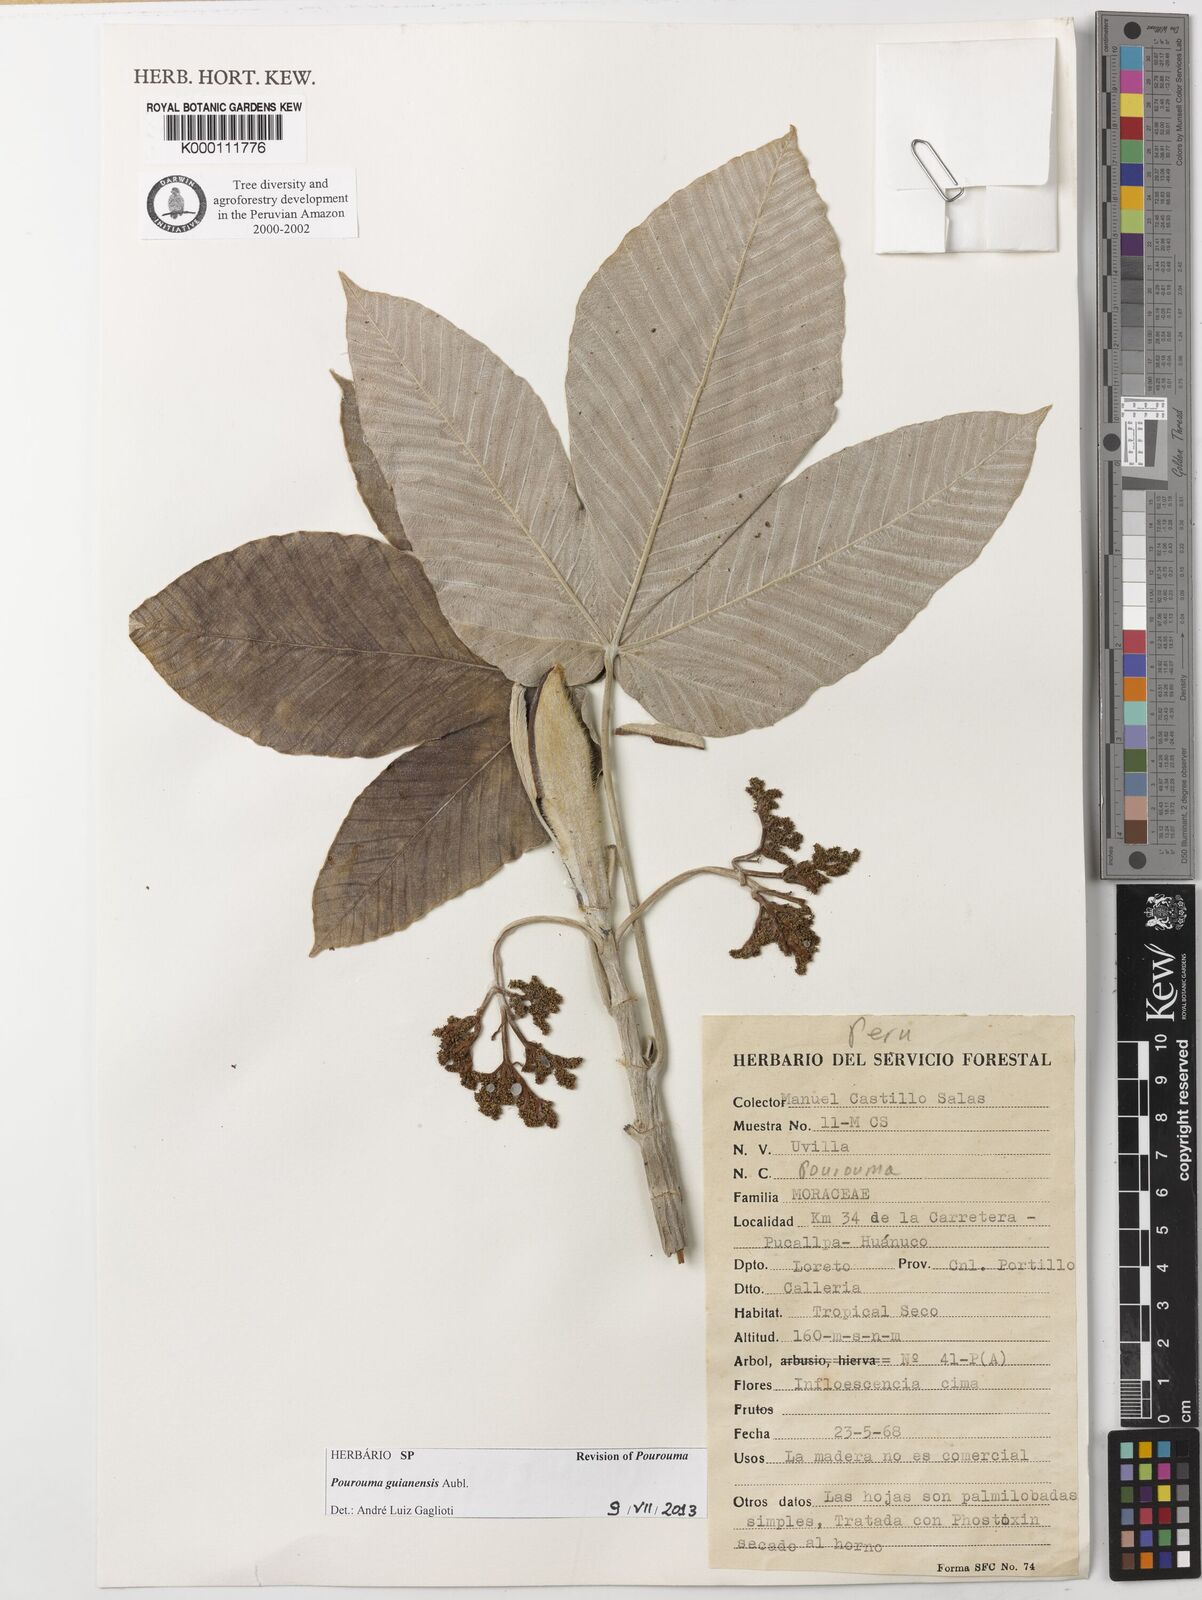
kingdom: Plantae
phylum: Tracheophyta
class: Magnoliopsida
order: Rosales
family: Urticaceae
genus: Pourouma
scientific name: Pourouma guianensis
